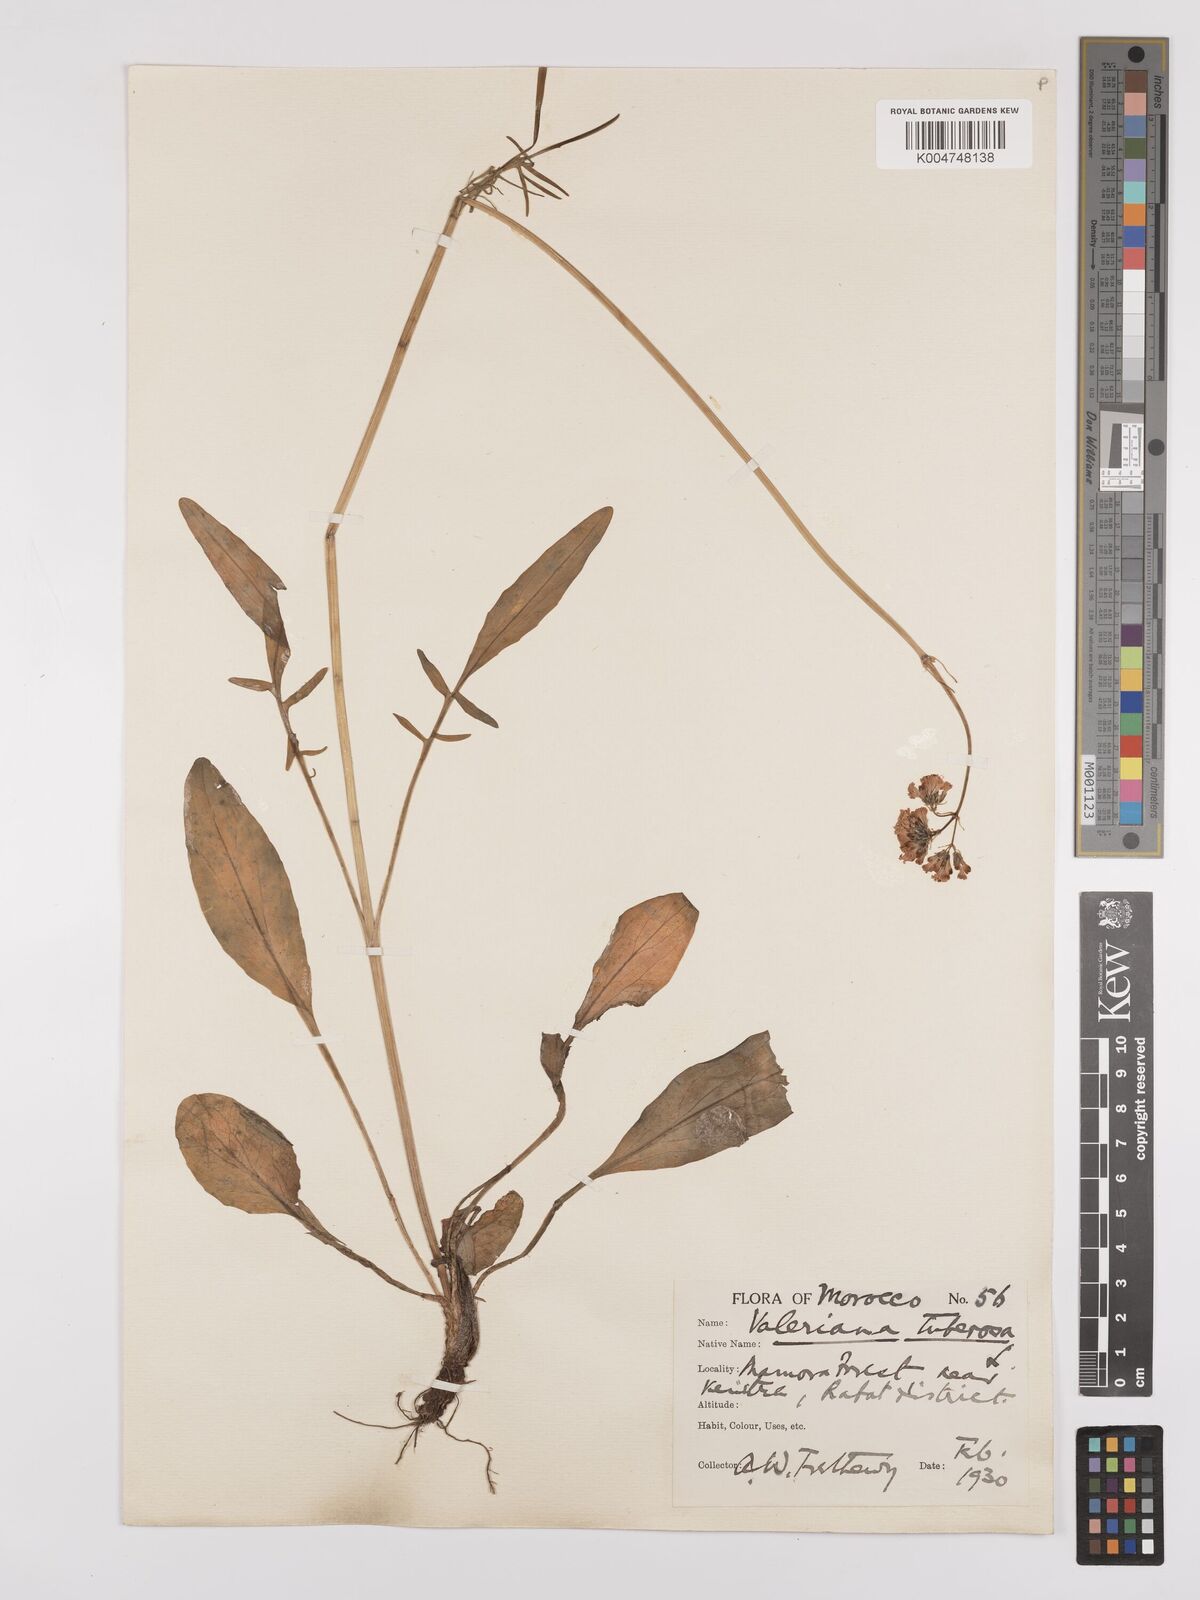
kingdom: Plantae
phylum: Tracheophyta
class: Magnoliopsida
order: Dipsacales
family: Caprifoliaceae
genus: Valeriana
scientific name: Valeriana tuberosa
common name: Tuberous valerian
